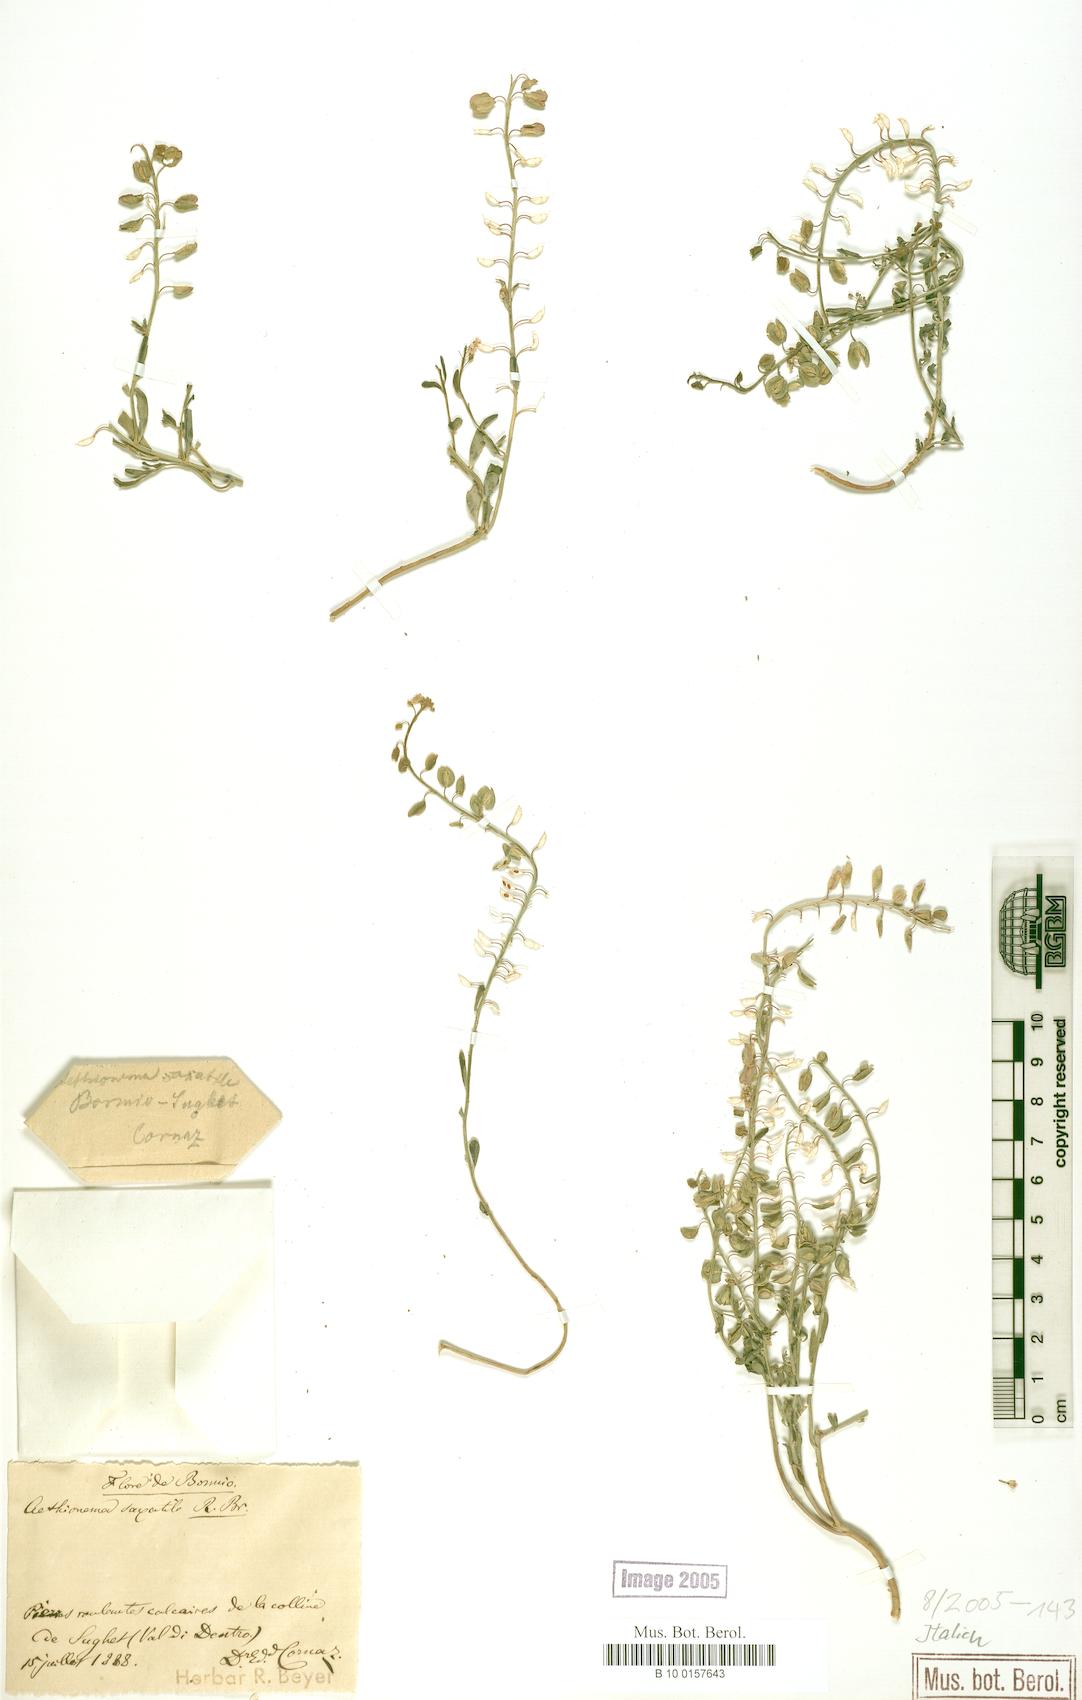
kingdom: Plantae
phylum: Tracheophyta
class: Magnoliopsida
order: Brassicales
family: Brassicaceae
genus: Aethionema
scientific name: Aethionema saxatile
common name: Burnt candytuft
